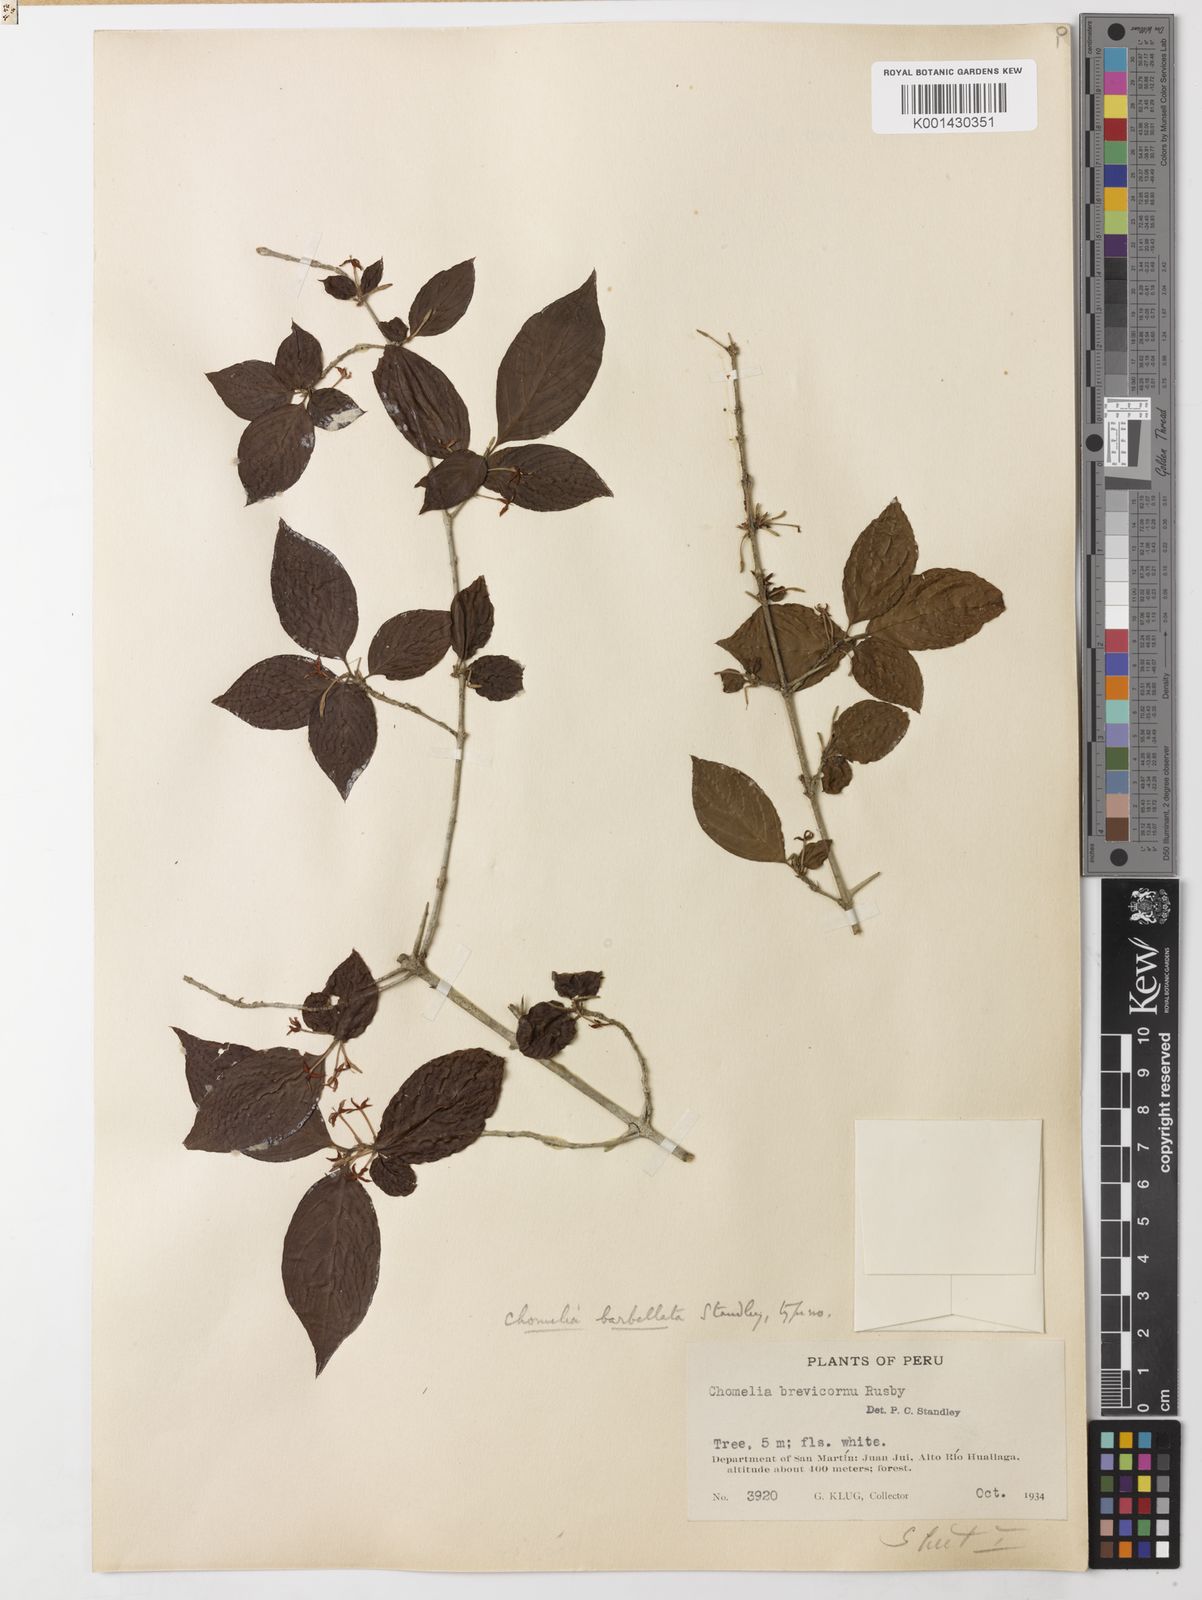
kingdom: Plantae
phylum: Tracheophyta
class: Magnoliopsida
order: Gentianales
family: Rubiaceae
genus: Chomelia
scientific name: Chomelia tenuiflora
